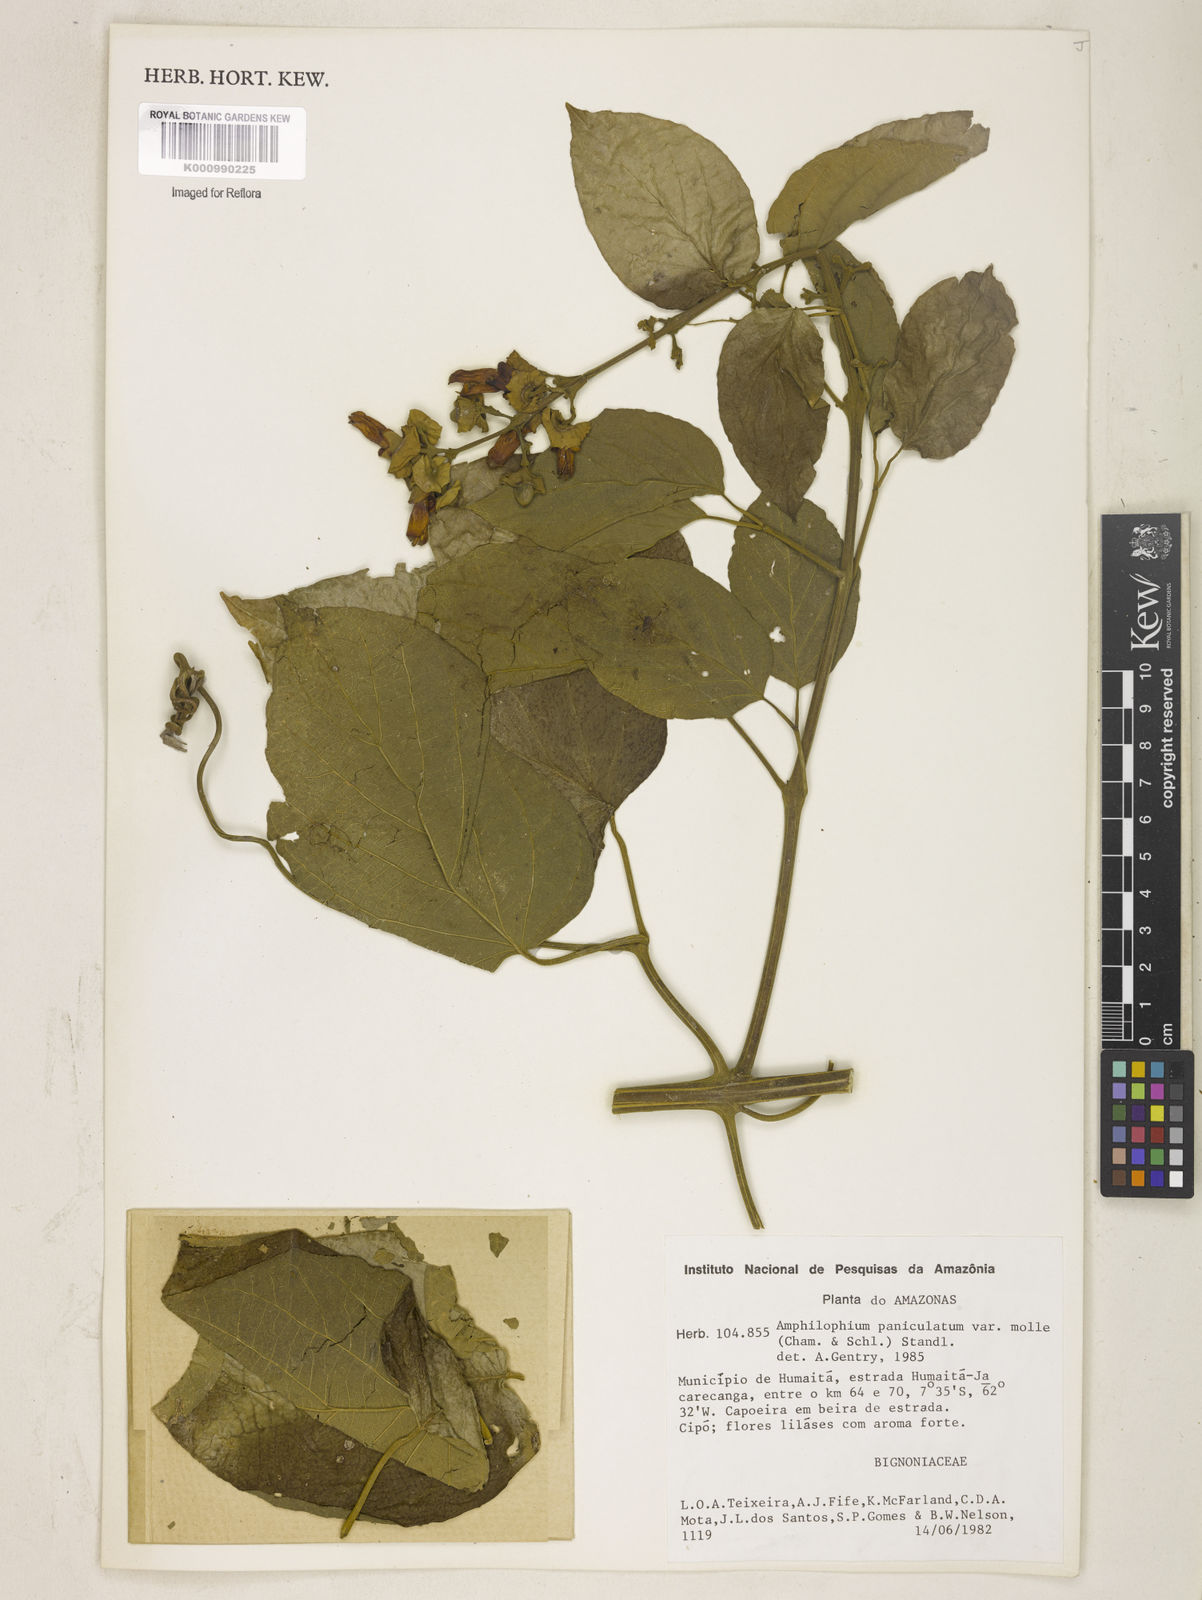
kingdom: Plantae
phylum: Tracheophyta
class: Magnoliopsida
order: Lamiales
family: Bignoniaceae
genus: Amphilophium
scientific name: Amphilophium paniculatum
